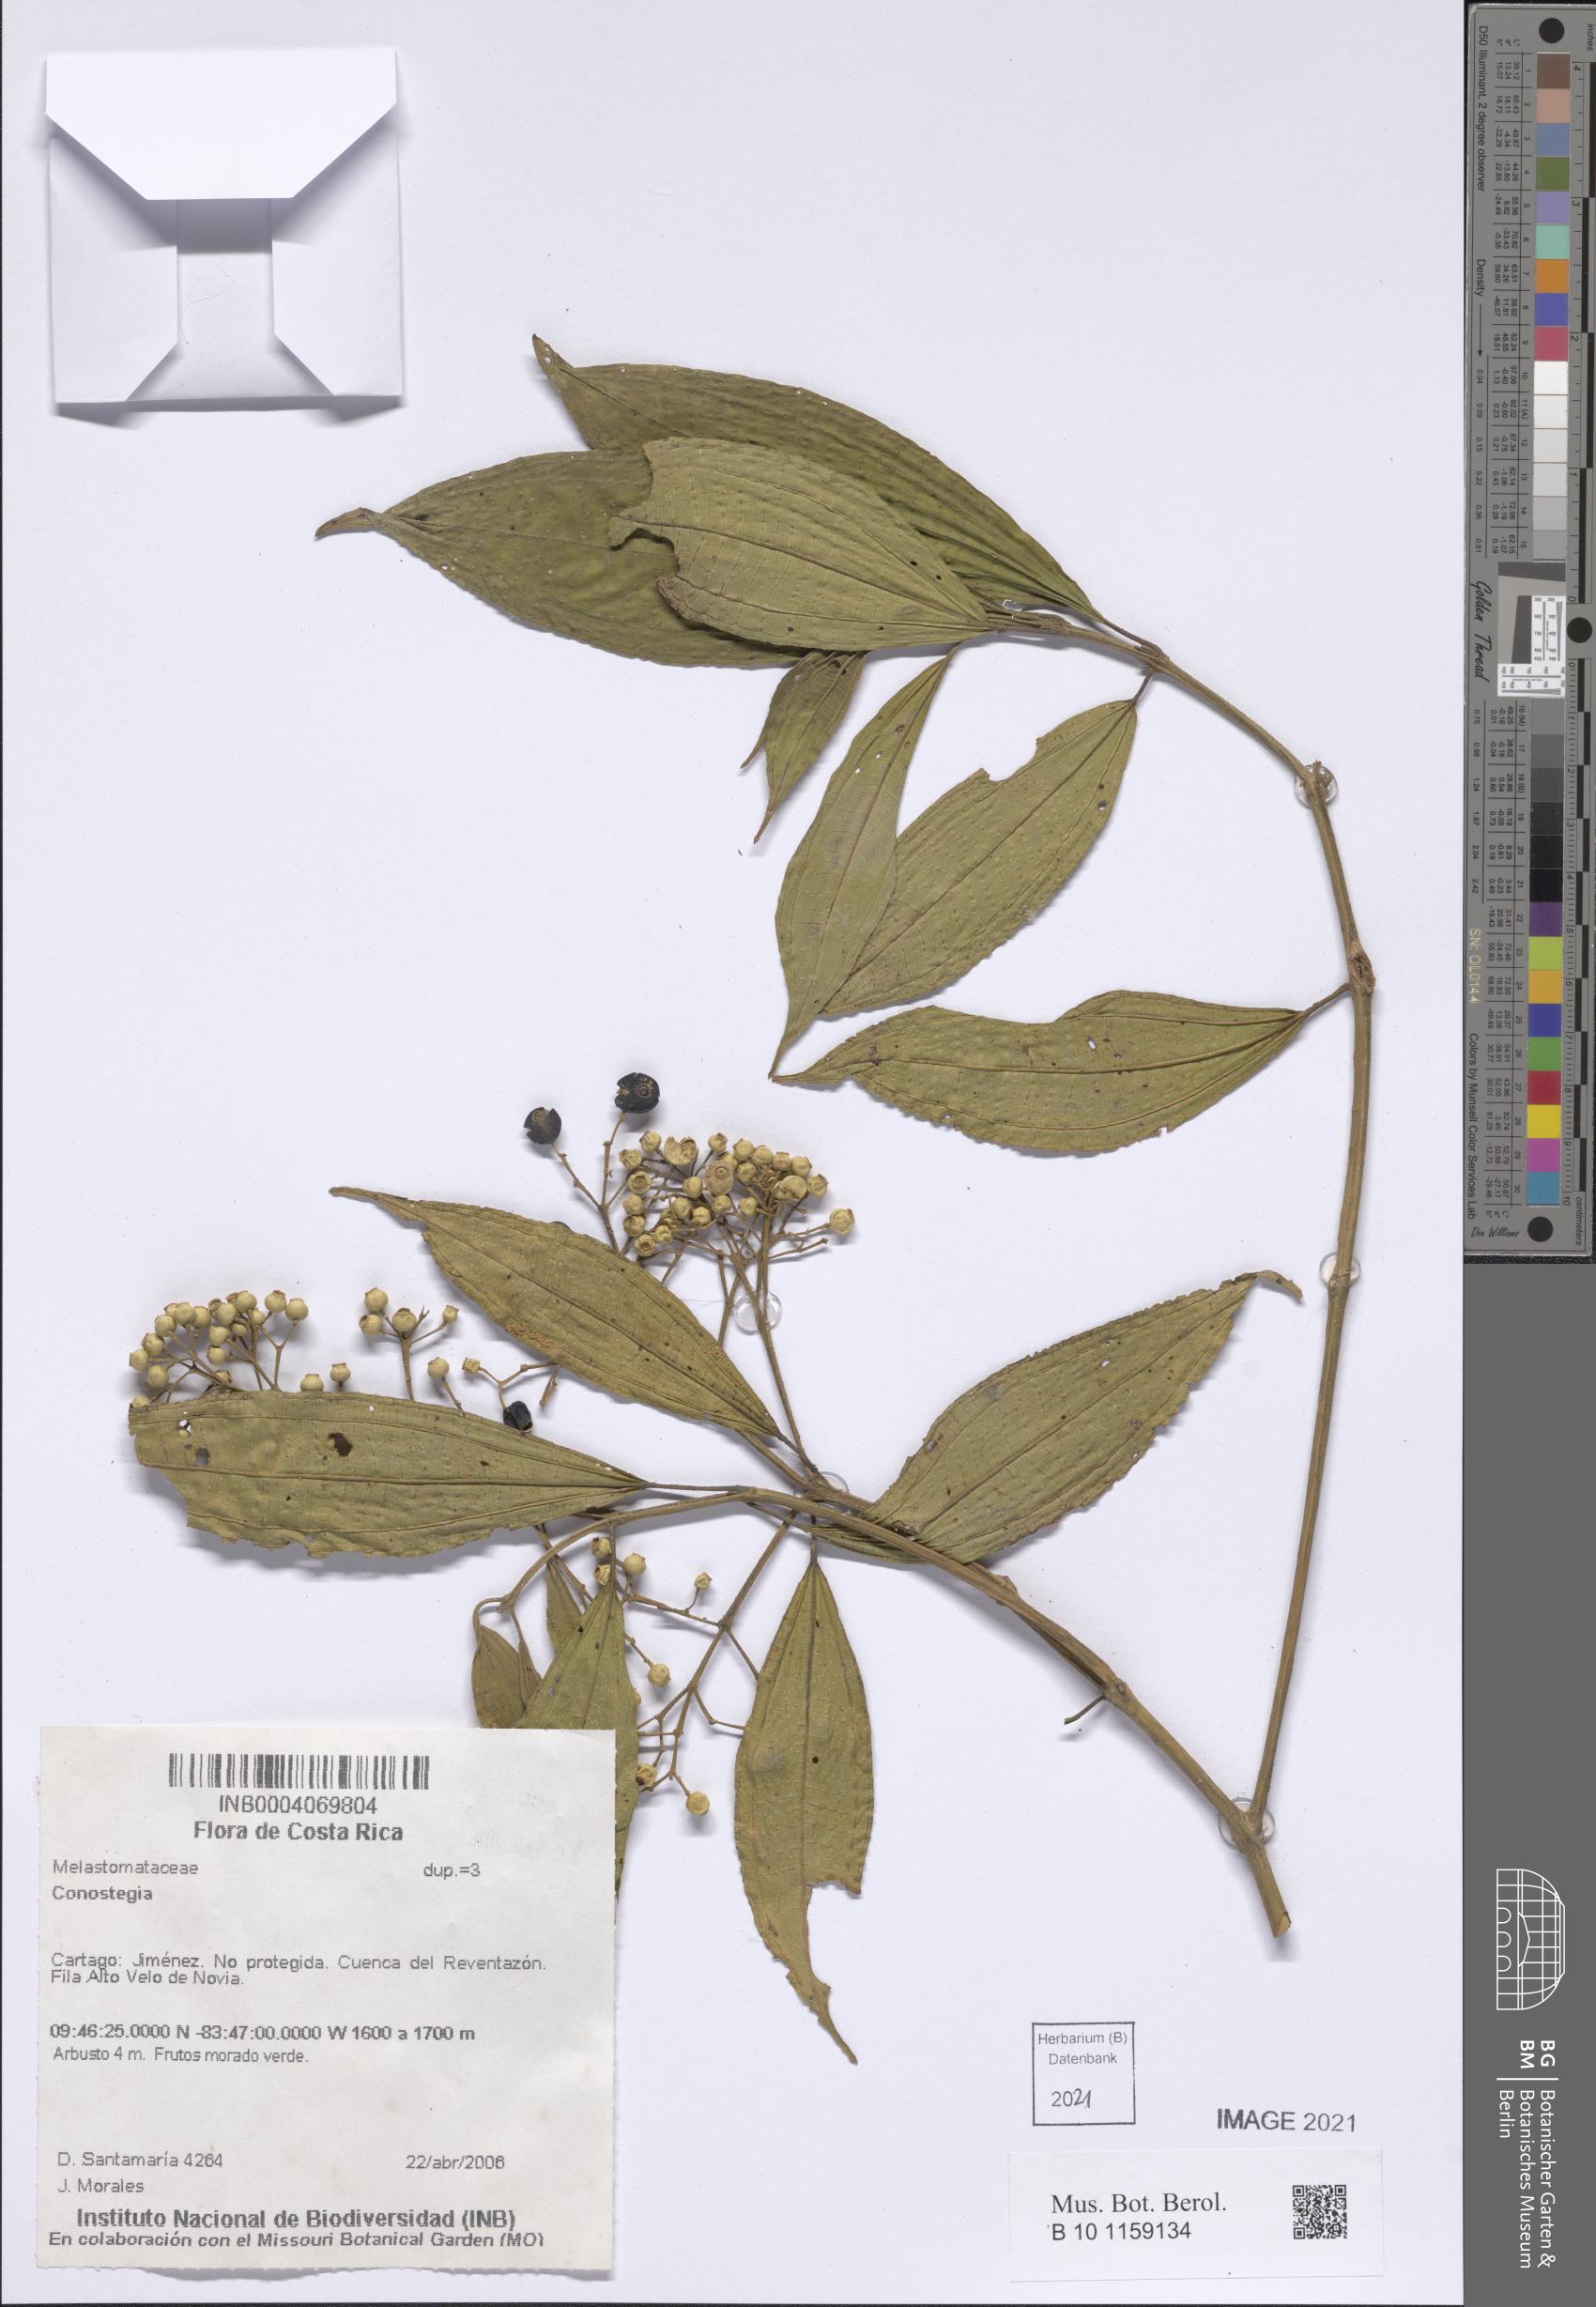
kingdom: Plantae
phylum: Tracheophyta
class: Magnoliopsida
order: Myrtales
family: Melastomataceae
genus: Miconia
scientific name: Miconia
